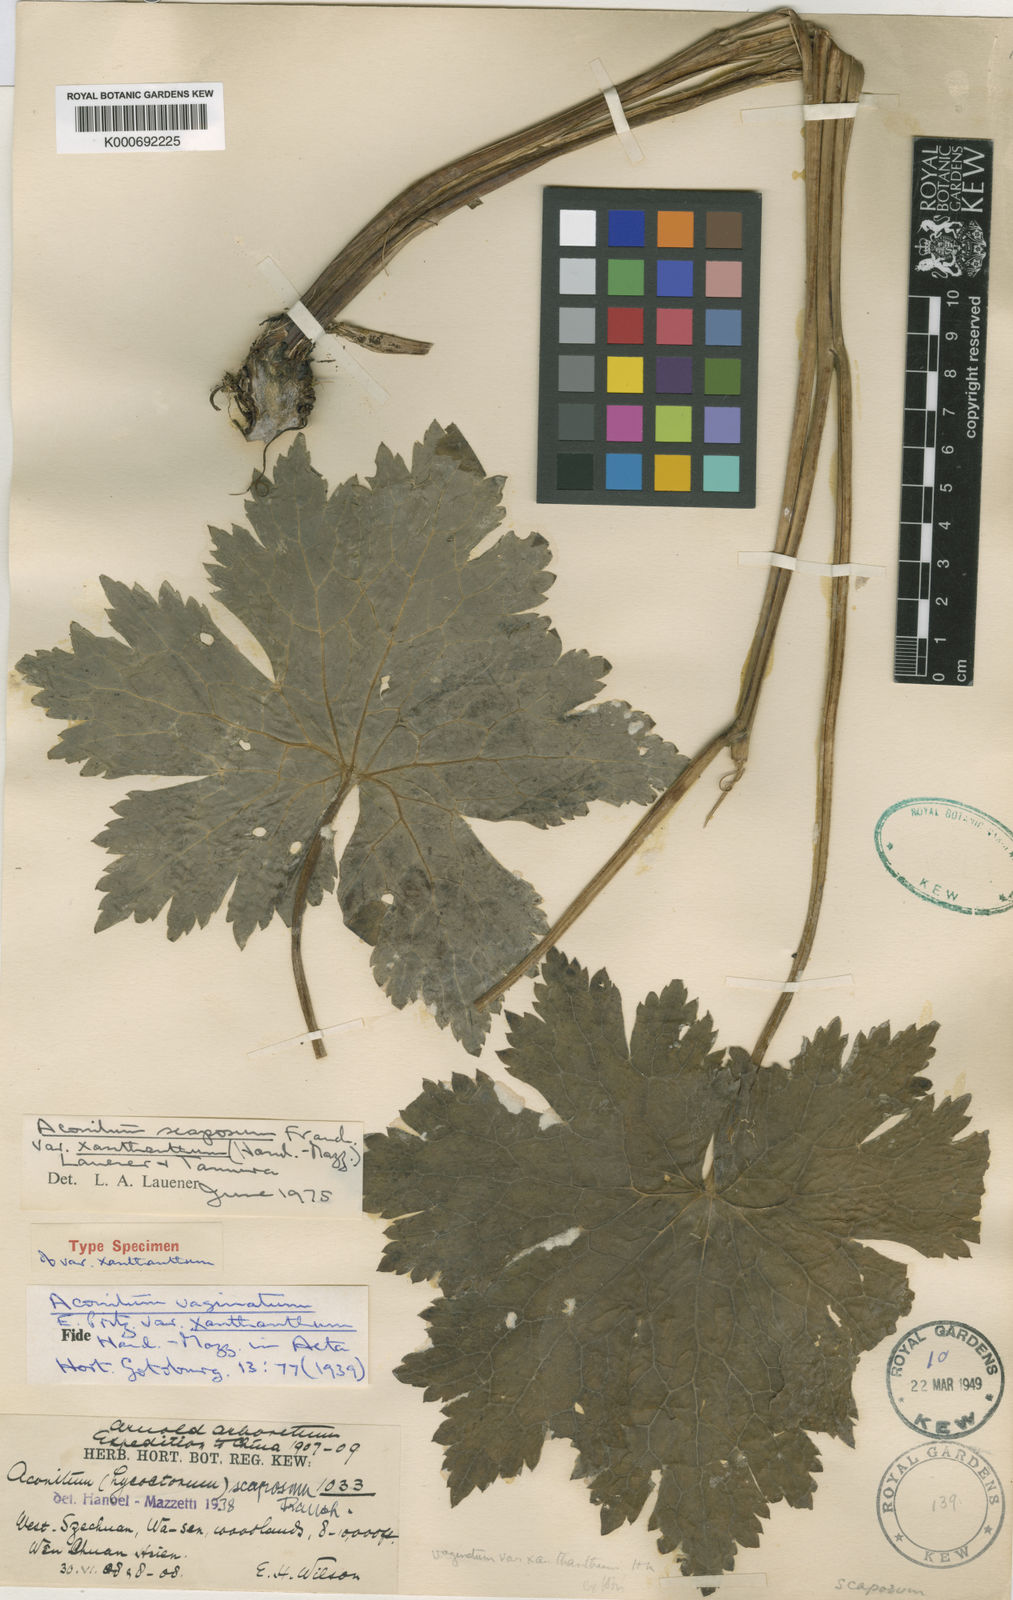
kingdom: Plantae
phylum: Tracheophyta
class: Magnoliopsida
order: Ranunculales
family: Ranunculaceae
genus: Aconitum
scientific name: Aconitum scaposum
